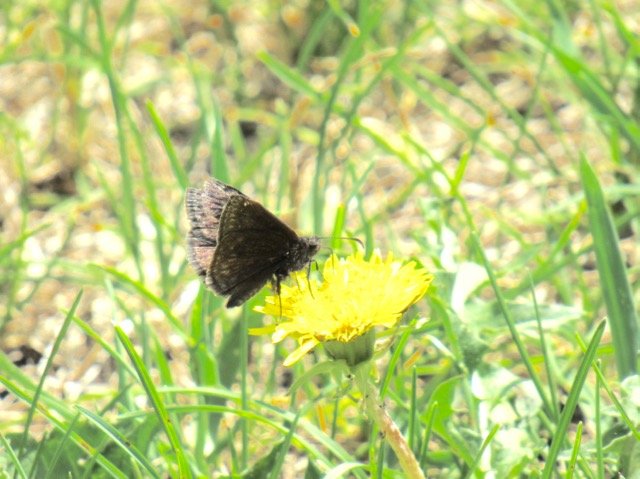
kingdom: Animalia
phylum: Arthropoda
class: Insecta
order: Lepidoptera
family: Hesperiidae
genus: Gesta
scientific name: Gesta
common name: Wild Indigo Duskywing
